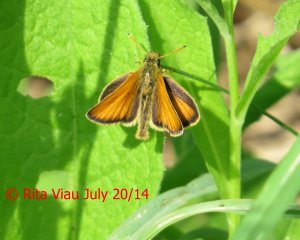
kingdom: Animalia
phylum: Arthropoda
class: Insecta
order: Lepidoptera
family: Hesperiidae
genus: Thymelicus
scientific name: Thymelicus lineola
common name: European Skipper
